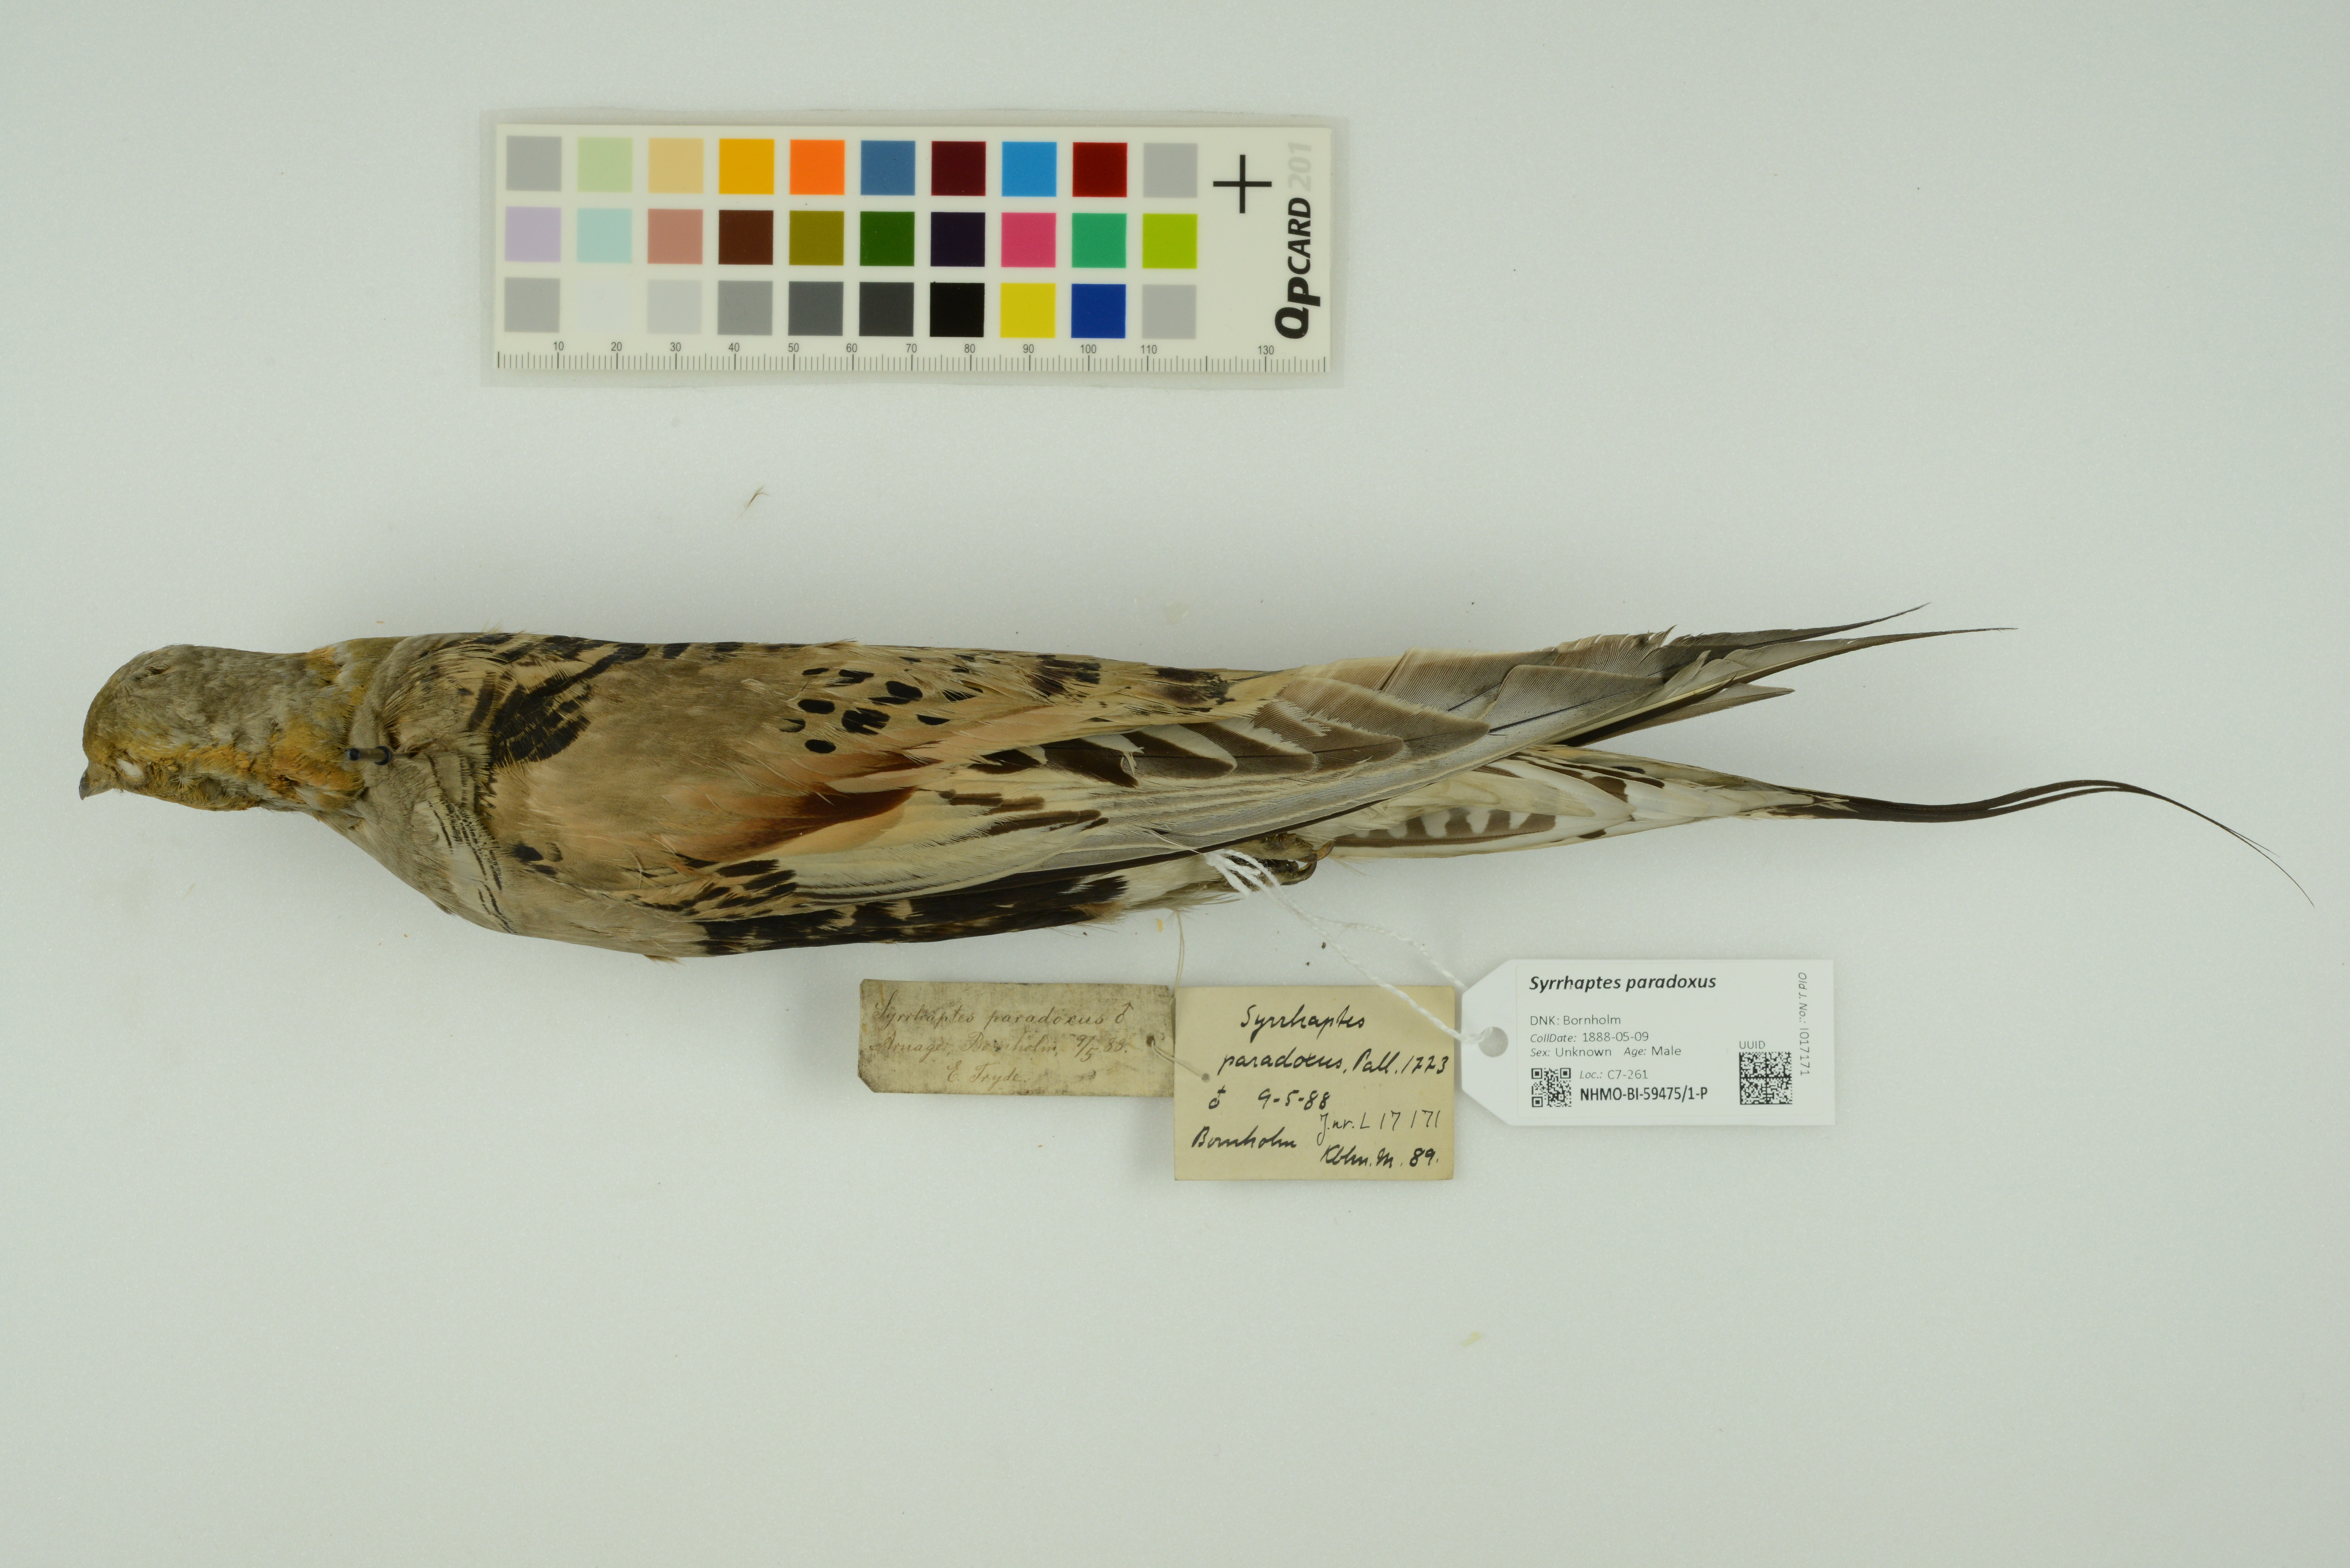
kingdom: Animalia
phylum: Chordata
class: Aves
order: Pteroclidiformes
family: Pteroclididae
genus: Syrrhaptes
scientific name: Syrrhaptes paradoxus
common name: Pallas's sandgrouse
